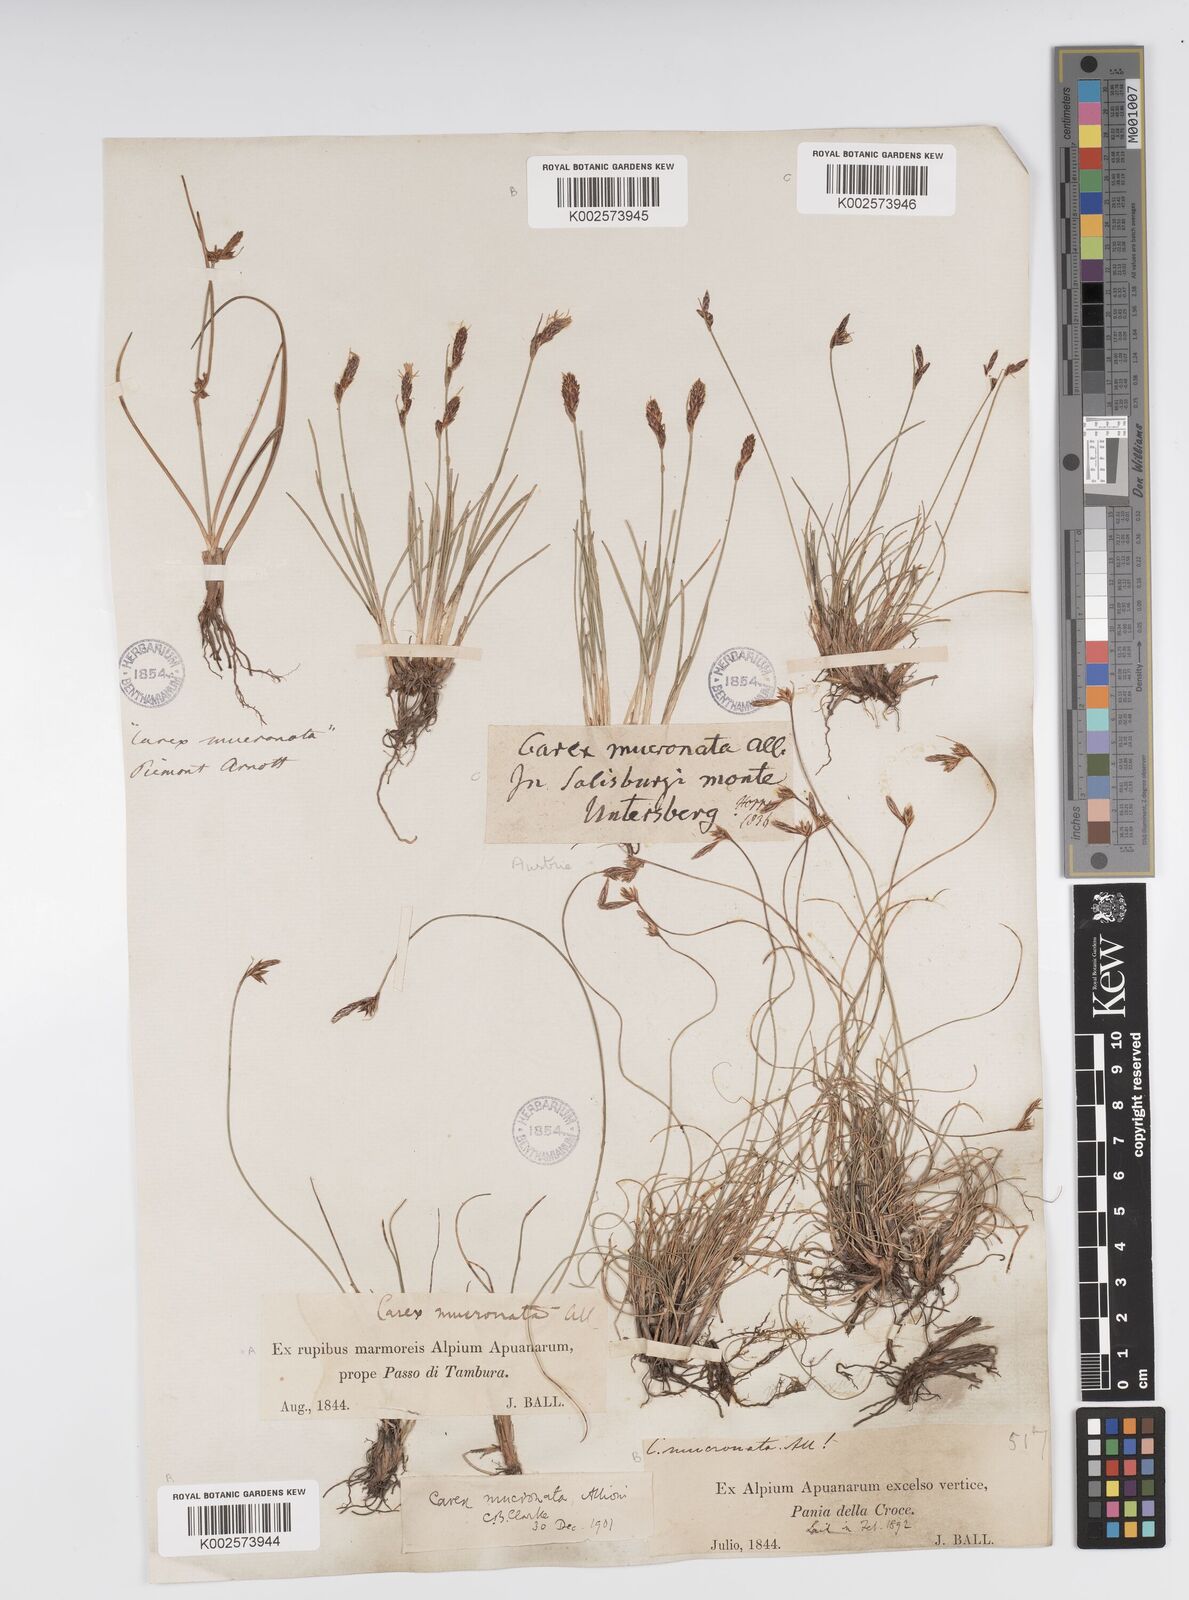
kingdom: Plantae
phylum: Tracheophyta
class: Liliopsida
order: Poales
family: Cyperaceae
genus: Carex
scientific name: Carex mucronata
